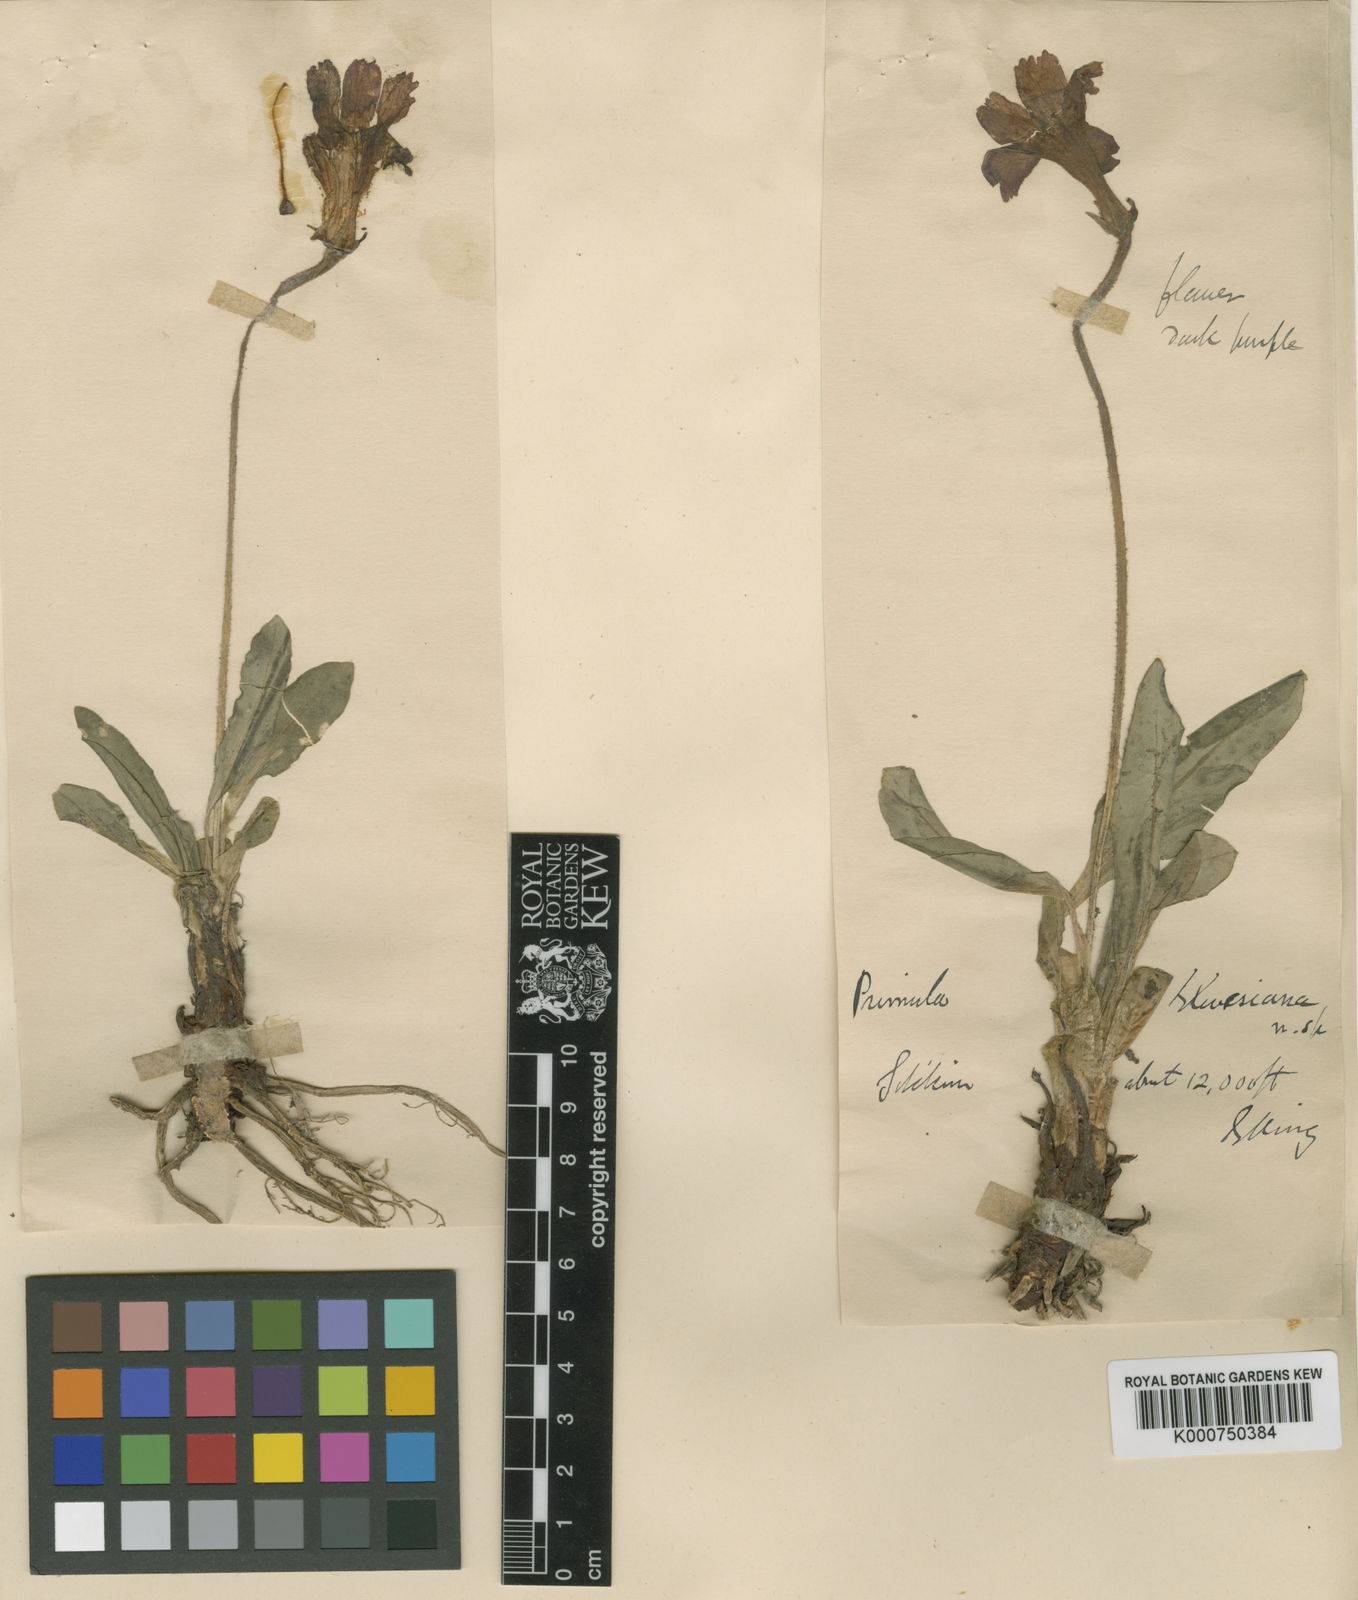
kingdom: Plantae
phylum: Tracheophyta
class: Magnoliopsida
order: Ericales
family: Primulaceae
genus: Omphalogramma
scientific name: Omphalogramma elwesianum
